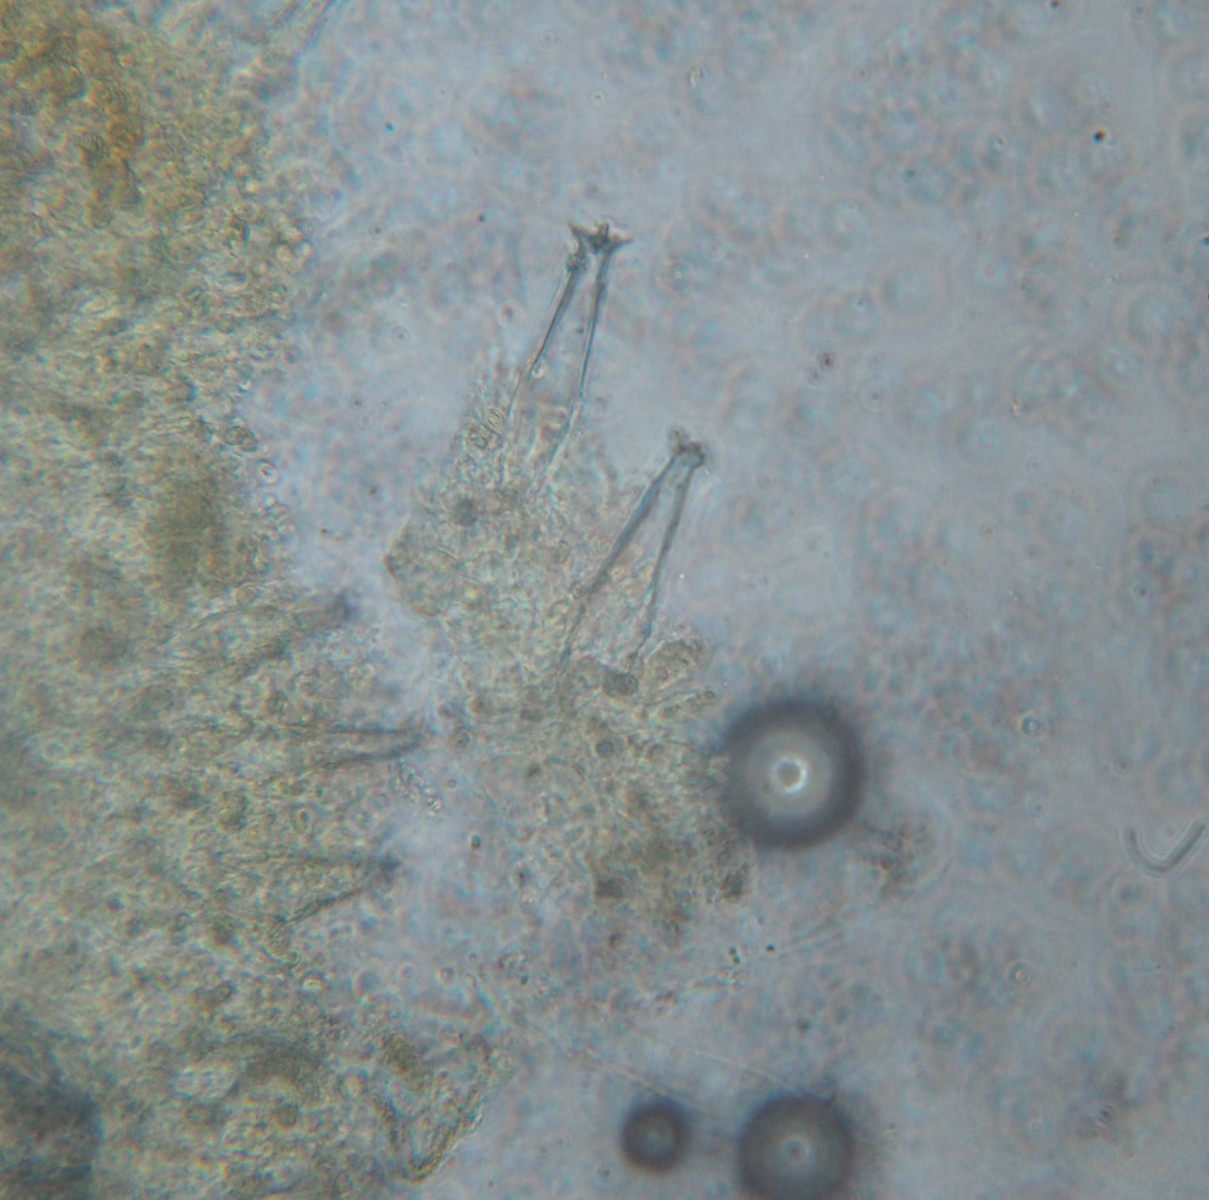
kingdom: Fungi
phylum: Basidiomycota
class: Agaricomycetes
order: Agaricales
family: Pluteaceae
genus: Pluteus
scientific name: Pluteus
